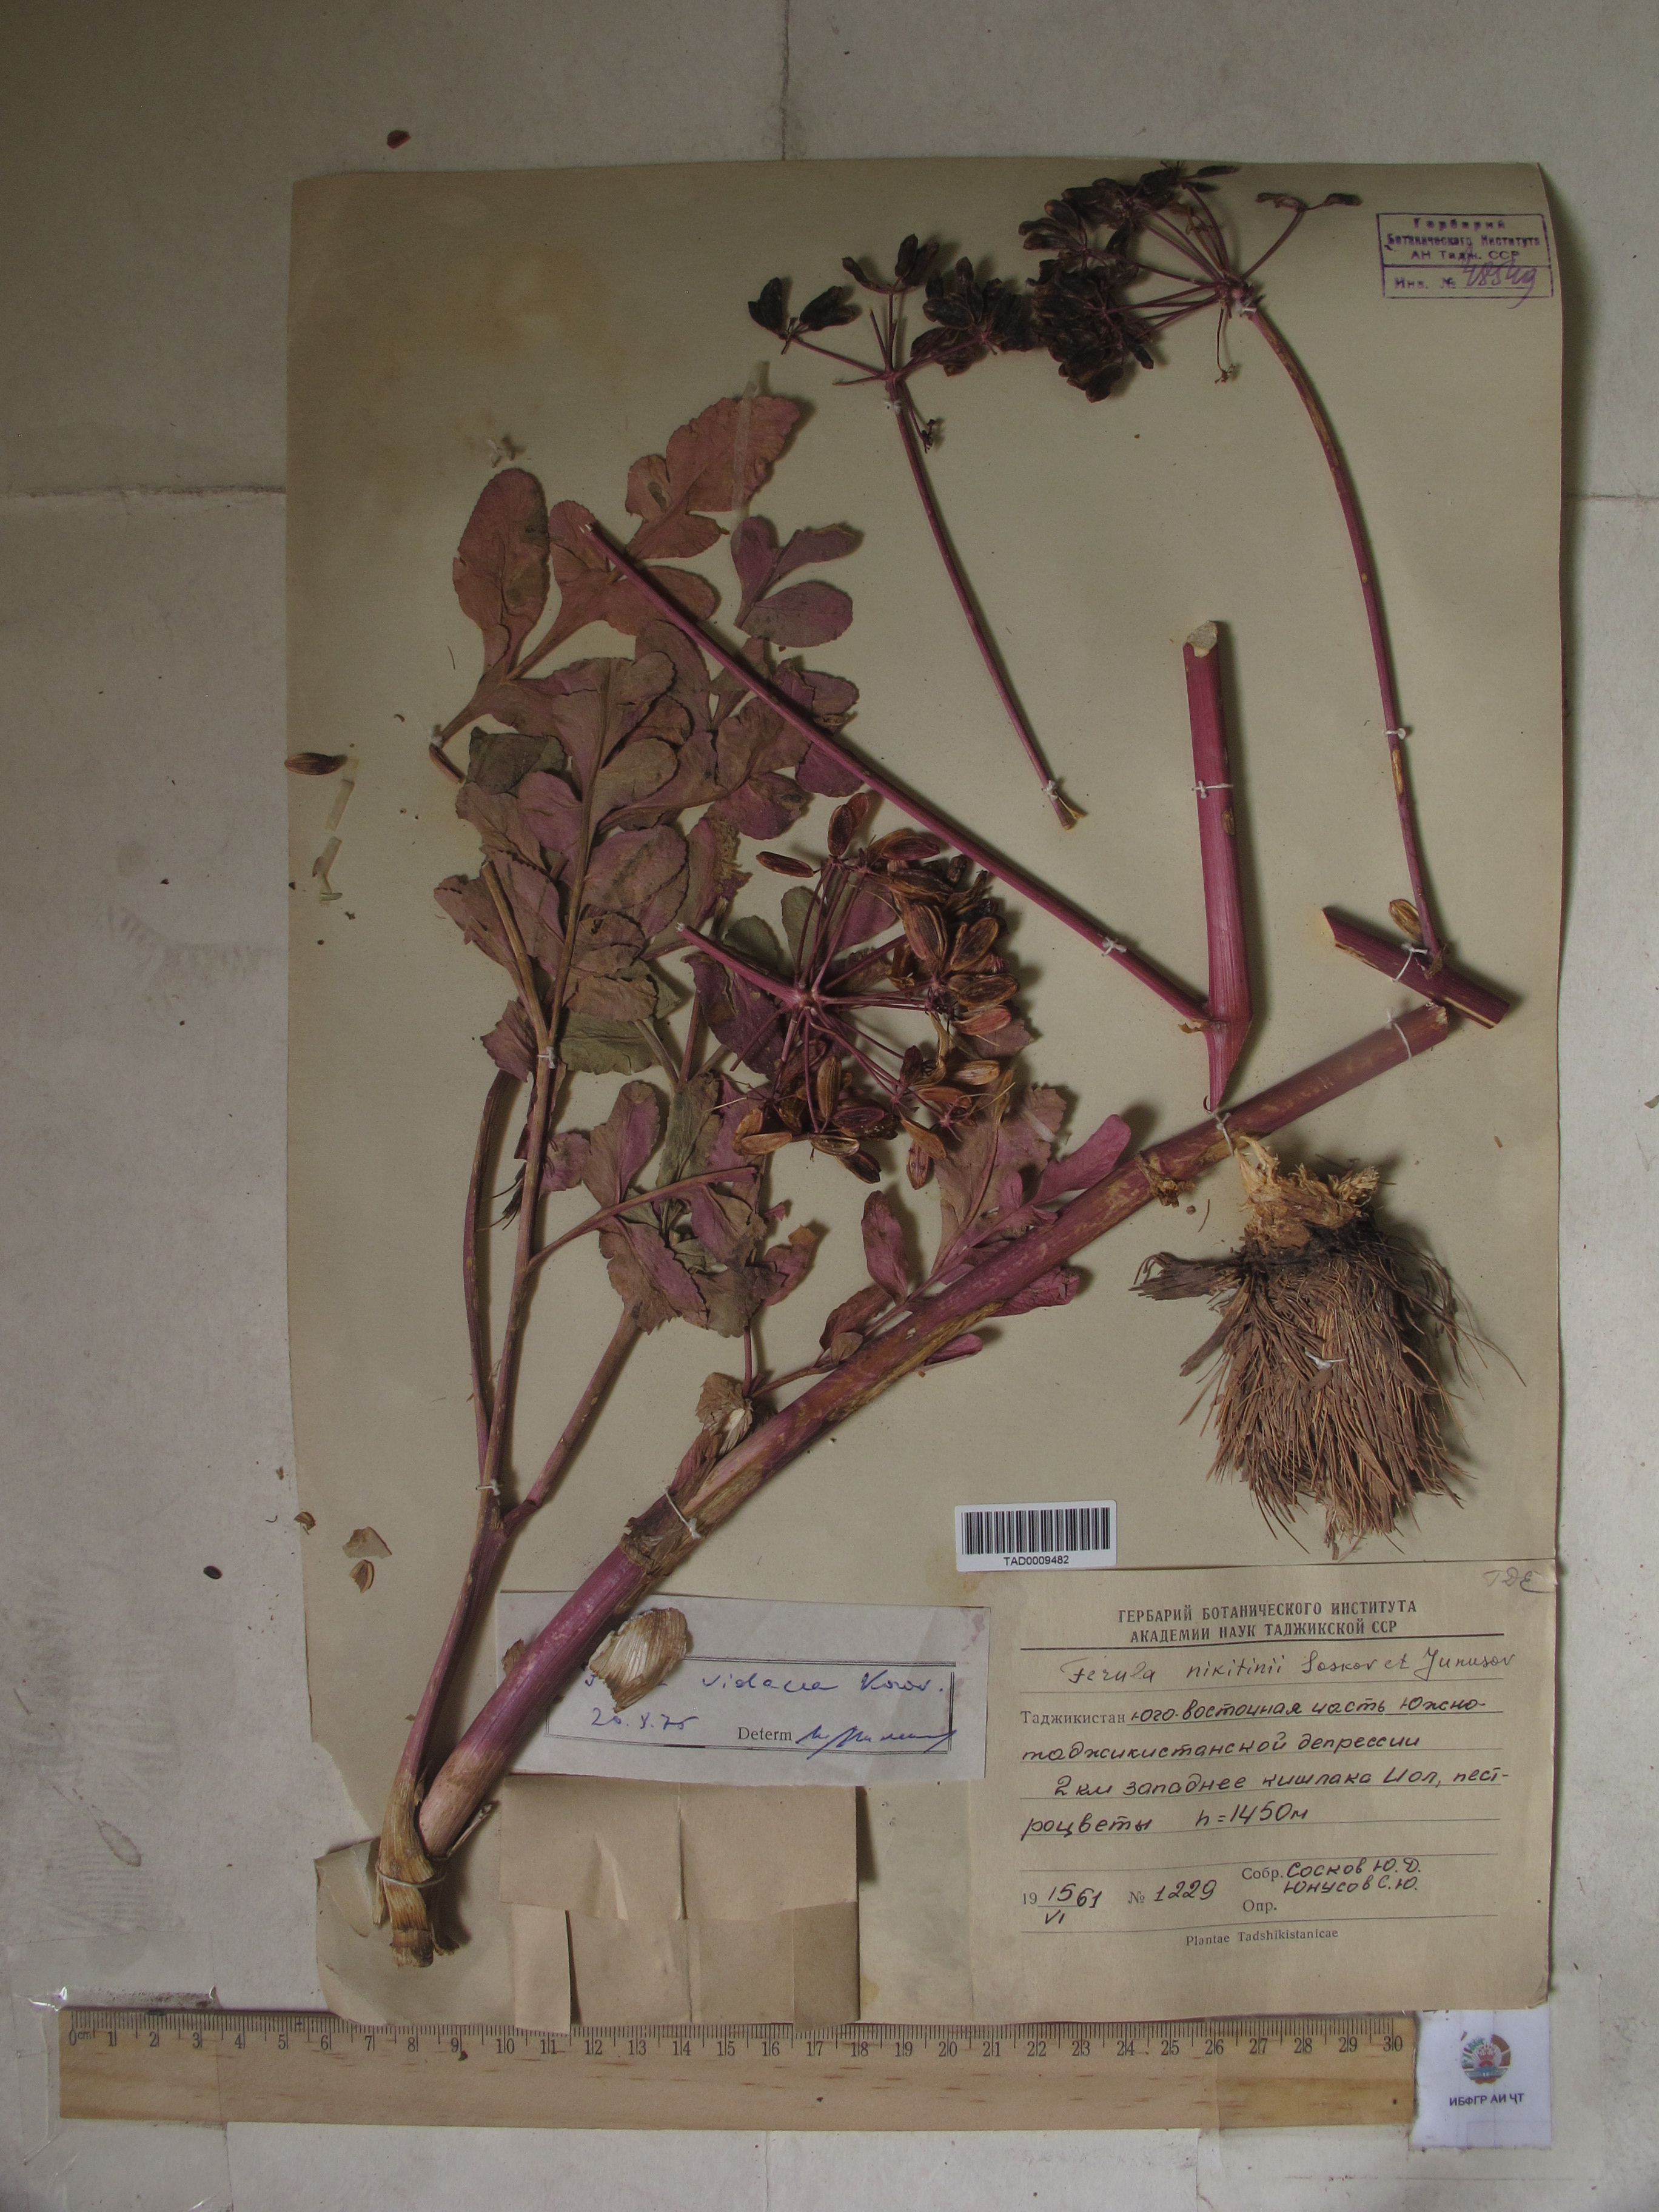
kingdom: Plantae
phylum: Tracheophyta
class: Magnoliopsida
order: Apiales
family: Apiaceae
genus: Ferula
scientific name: Ferula violacea
